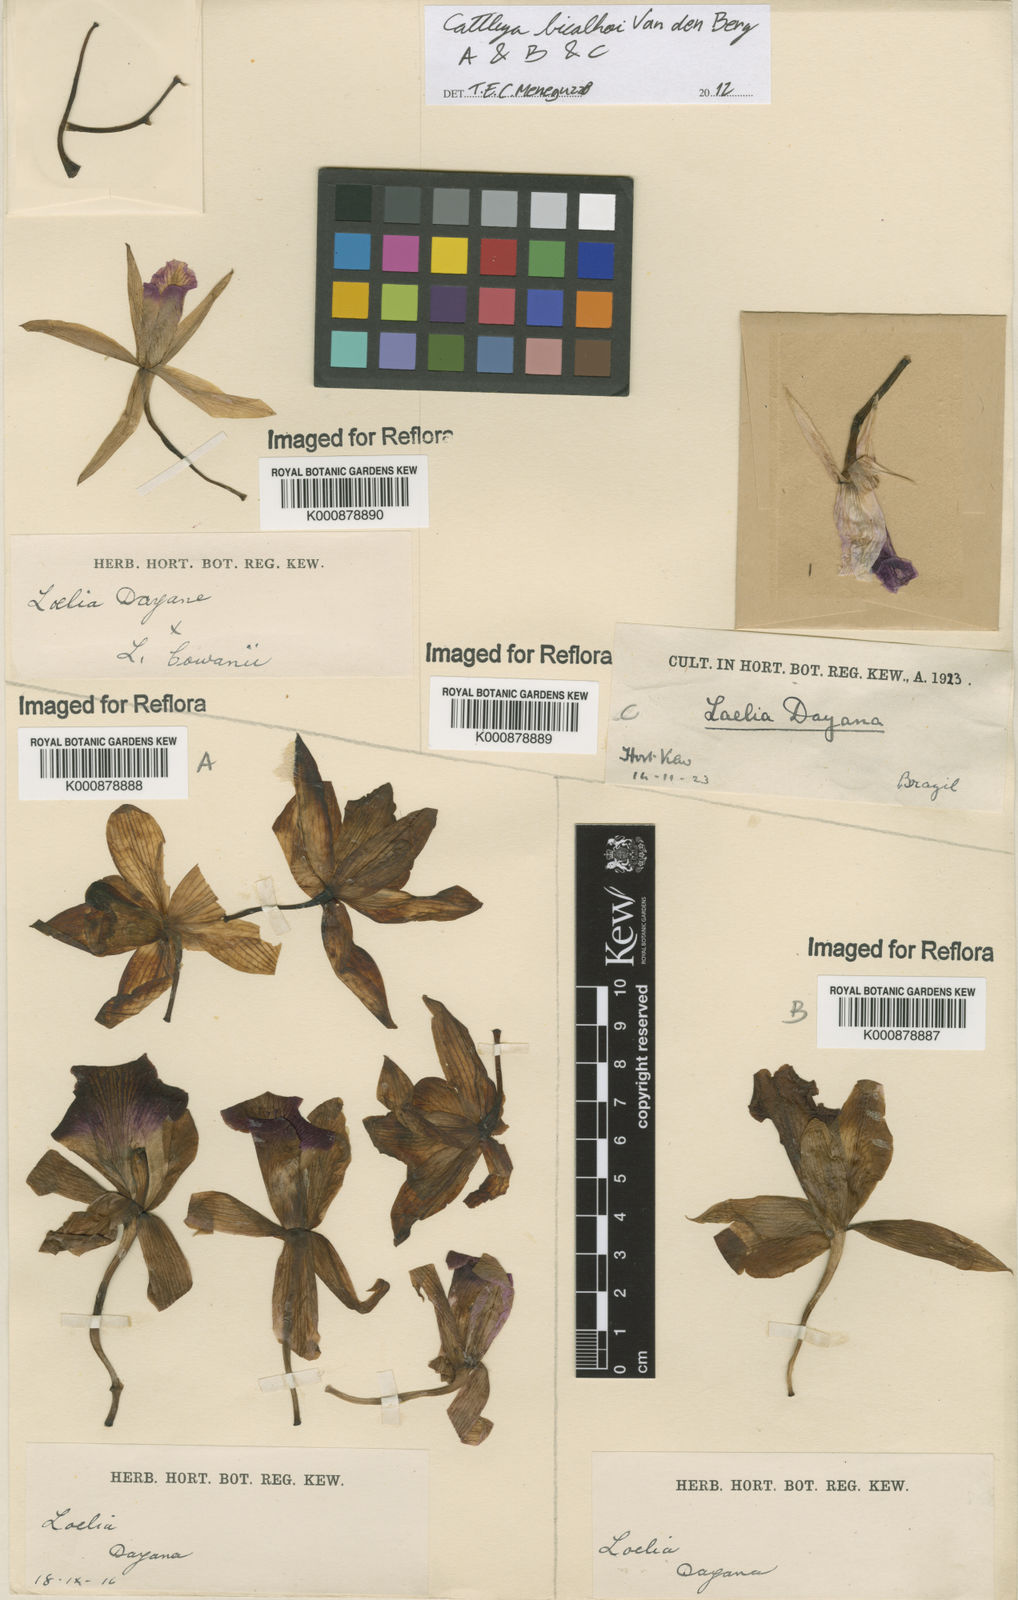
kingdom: Plantae
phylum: Tracheophyta
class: Liliopsida
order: Asparagales
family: Orchidaceae
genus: Cattleya
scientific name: Cattleya bicalhoi
